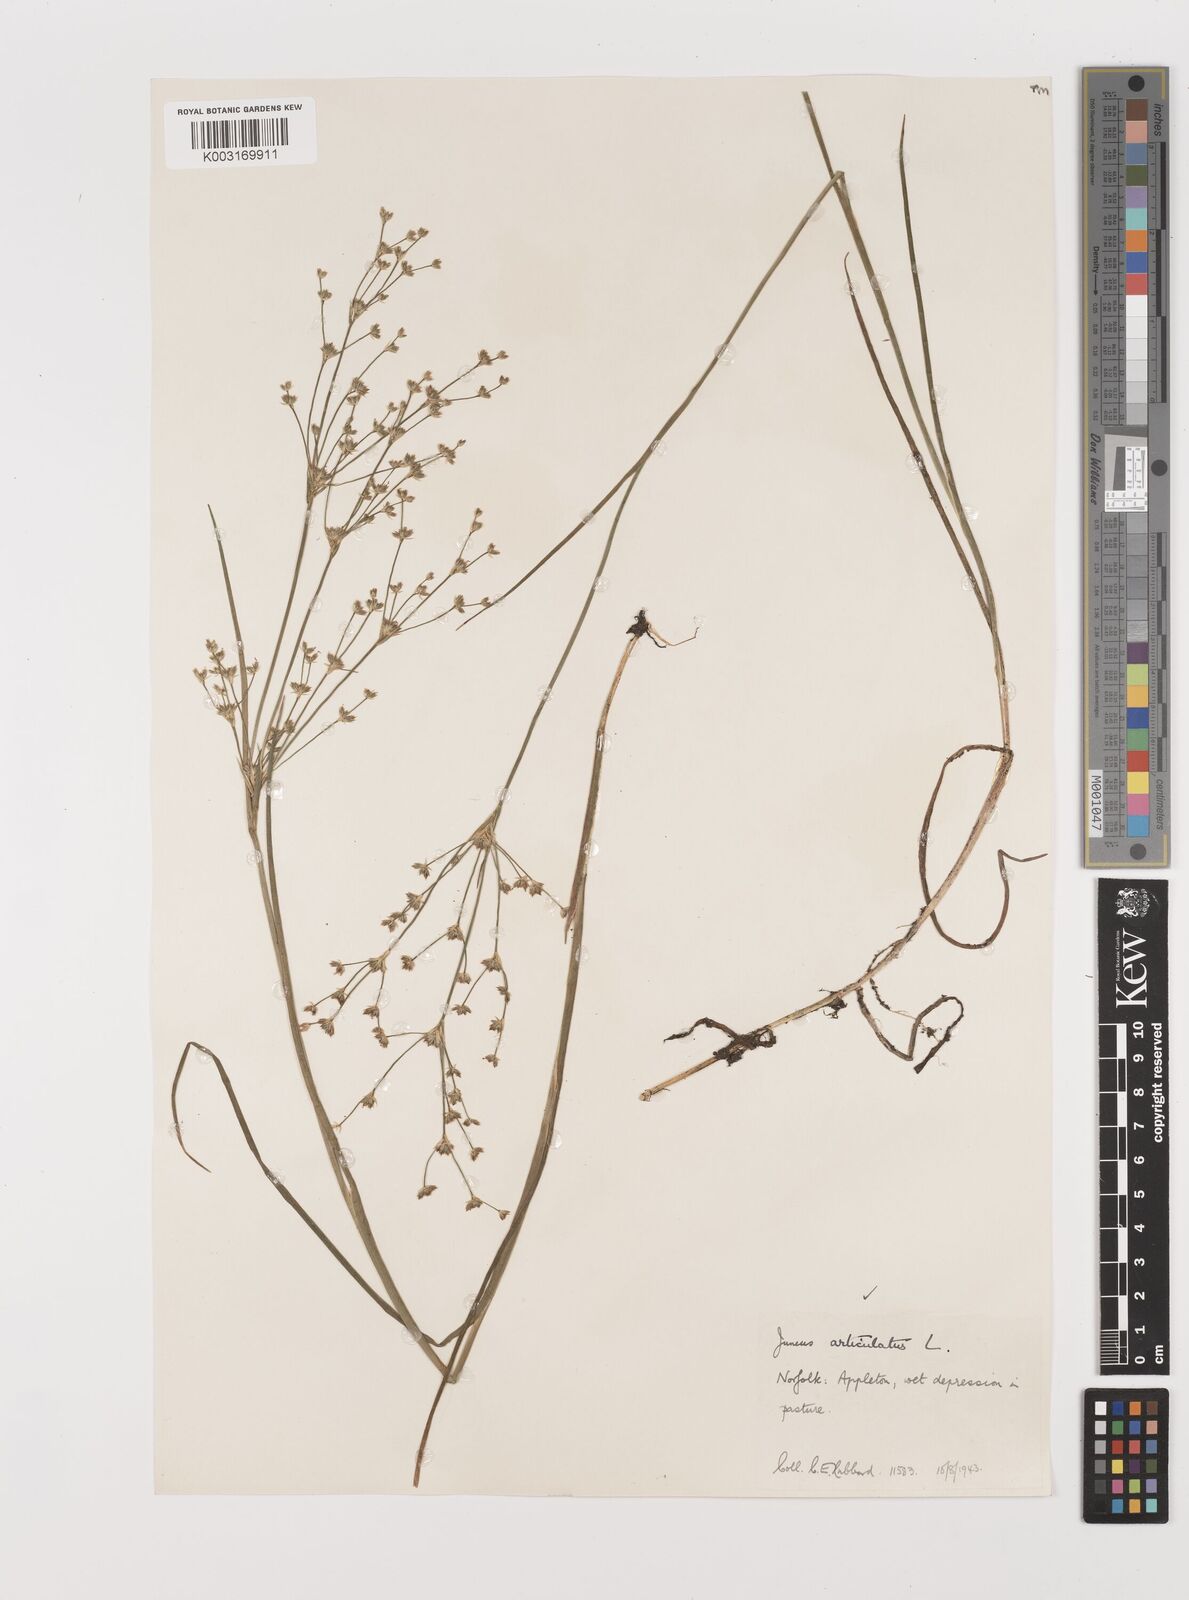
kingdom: Plantae
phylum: Tracheophyta
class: Liliopsida
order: Poales
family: Juncaceae
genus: Juncus
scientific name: Juncus articulatus
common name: Jointed rush
